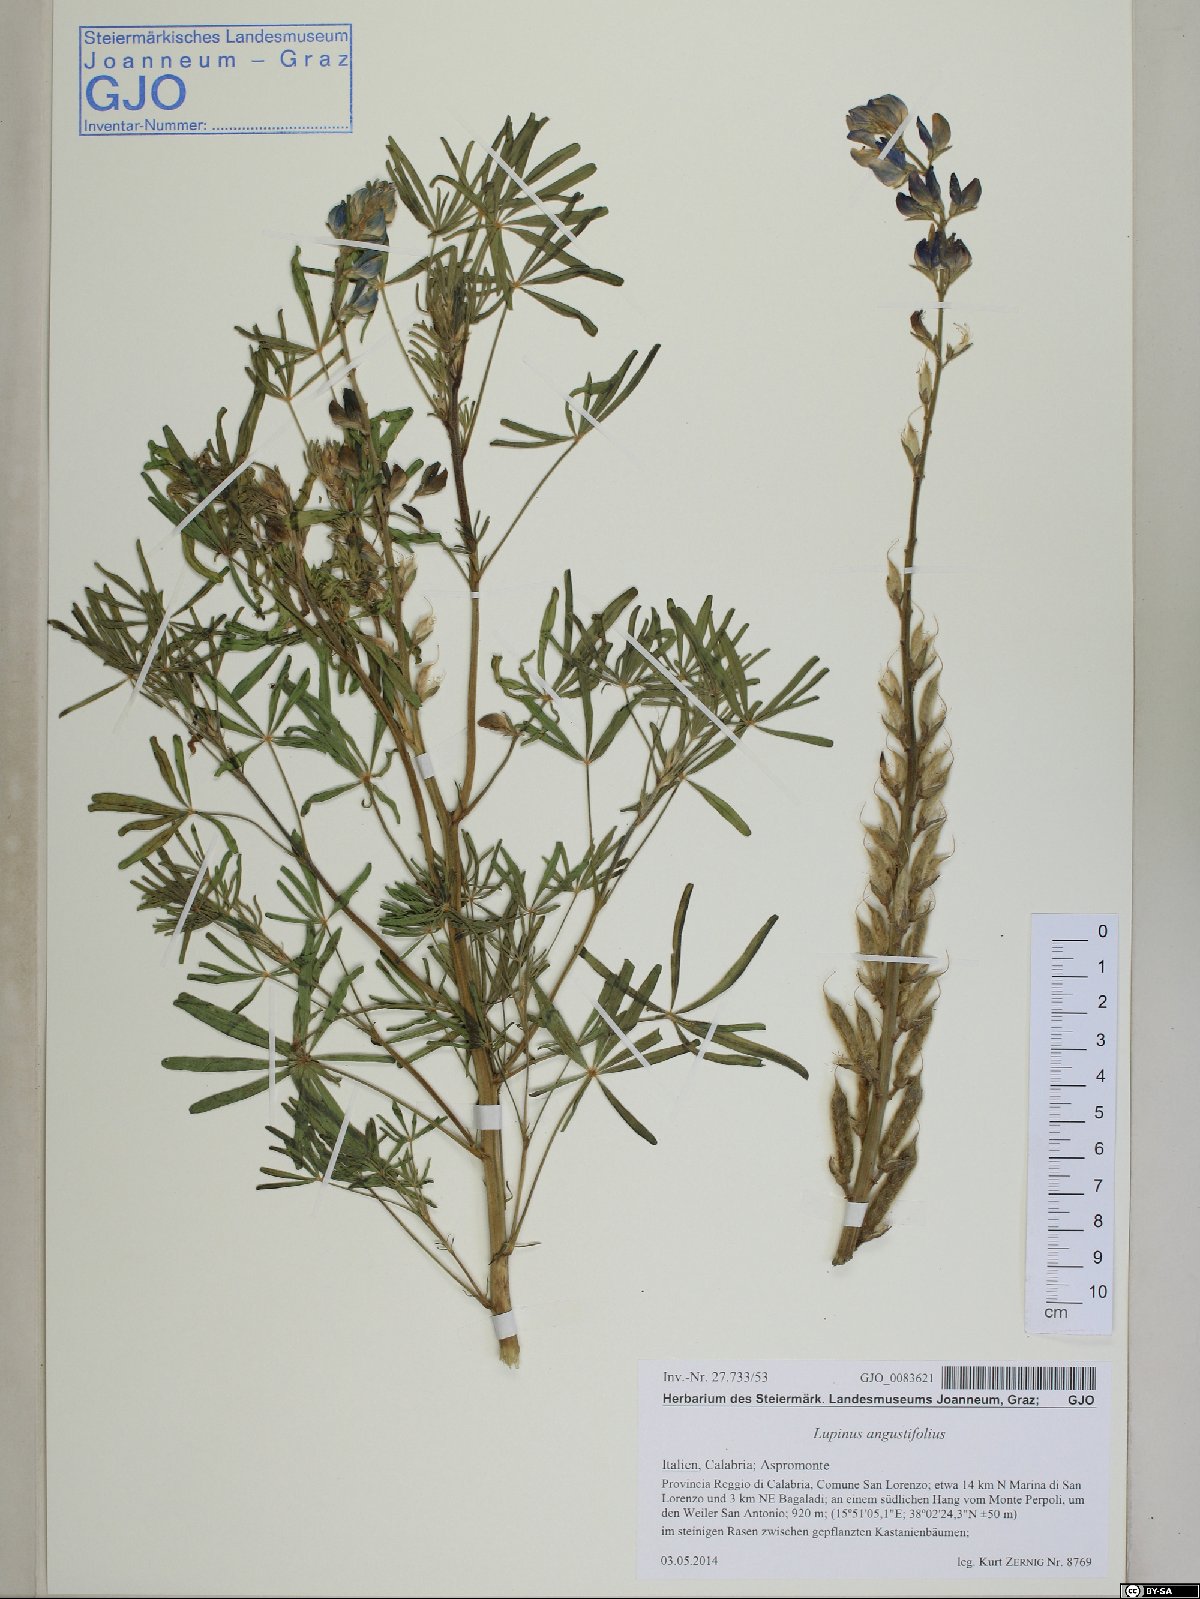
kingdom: Plantae
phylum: Tracheophyta
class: Magnoliopsida
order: Fabales
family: Fabaceae
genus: Lupinus
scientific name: Lupinus angustifolius
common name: Narrow-leaved lupin
